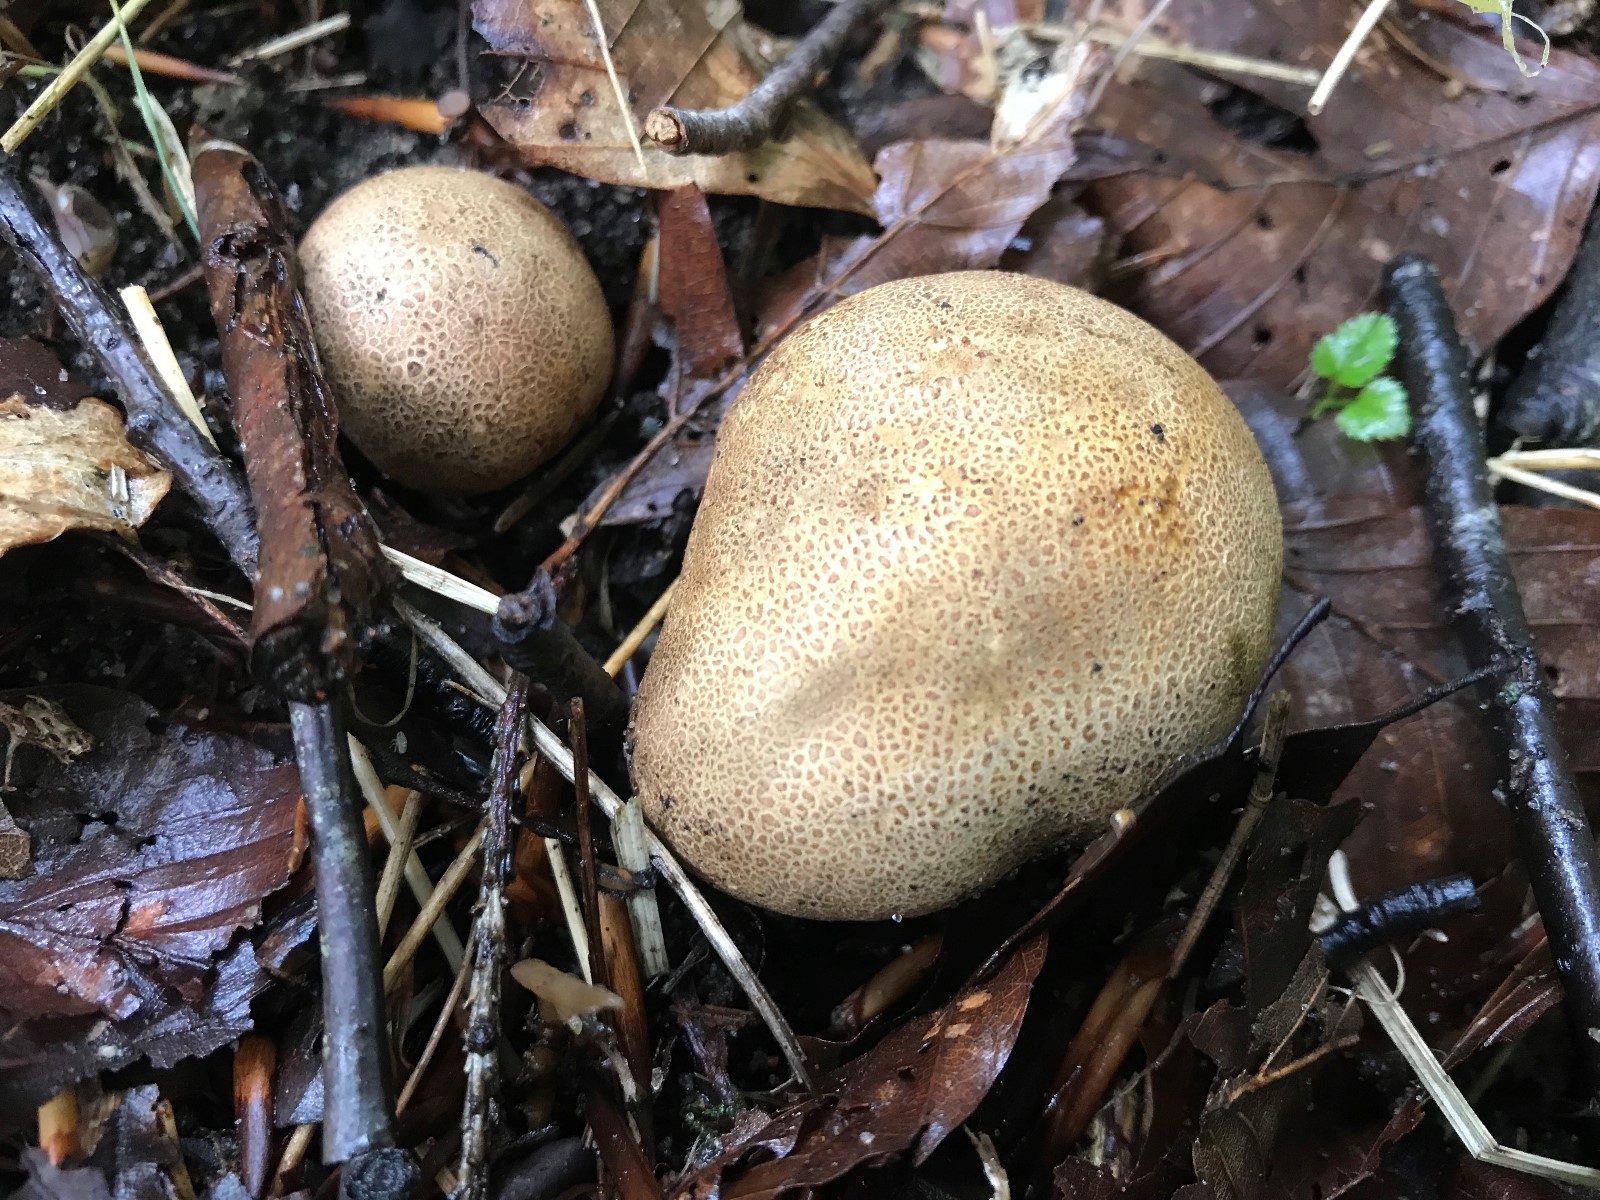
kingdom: Fungi
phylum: Basidiomycota
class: Agaricomycetes
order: Boletales
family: Sclerodermataceae
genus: Scleroderma
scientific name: Scleroderma
